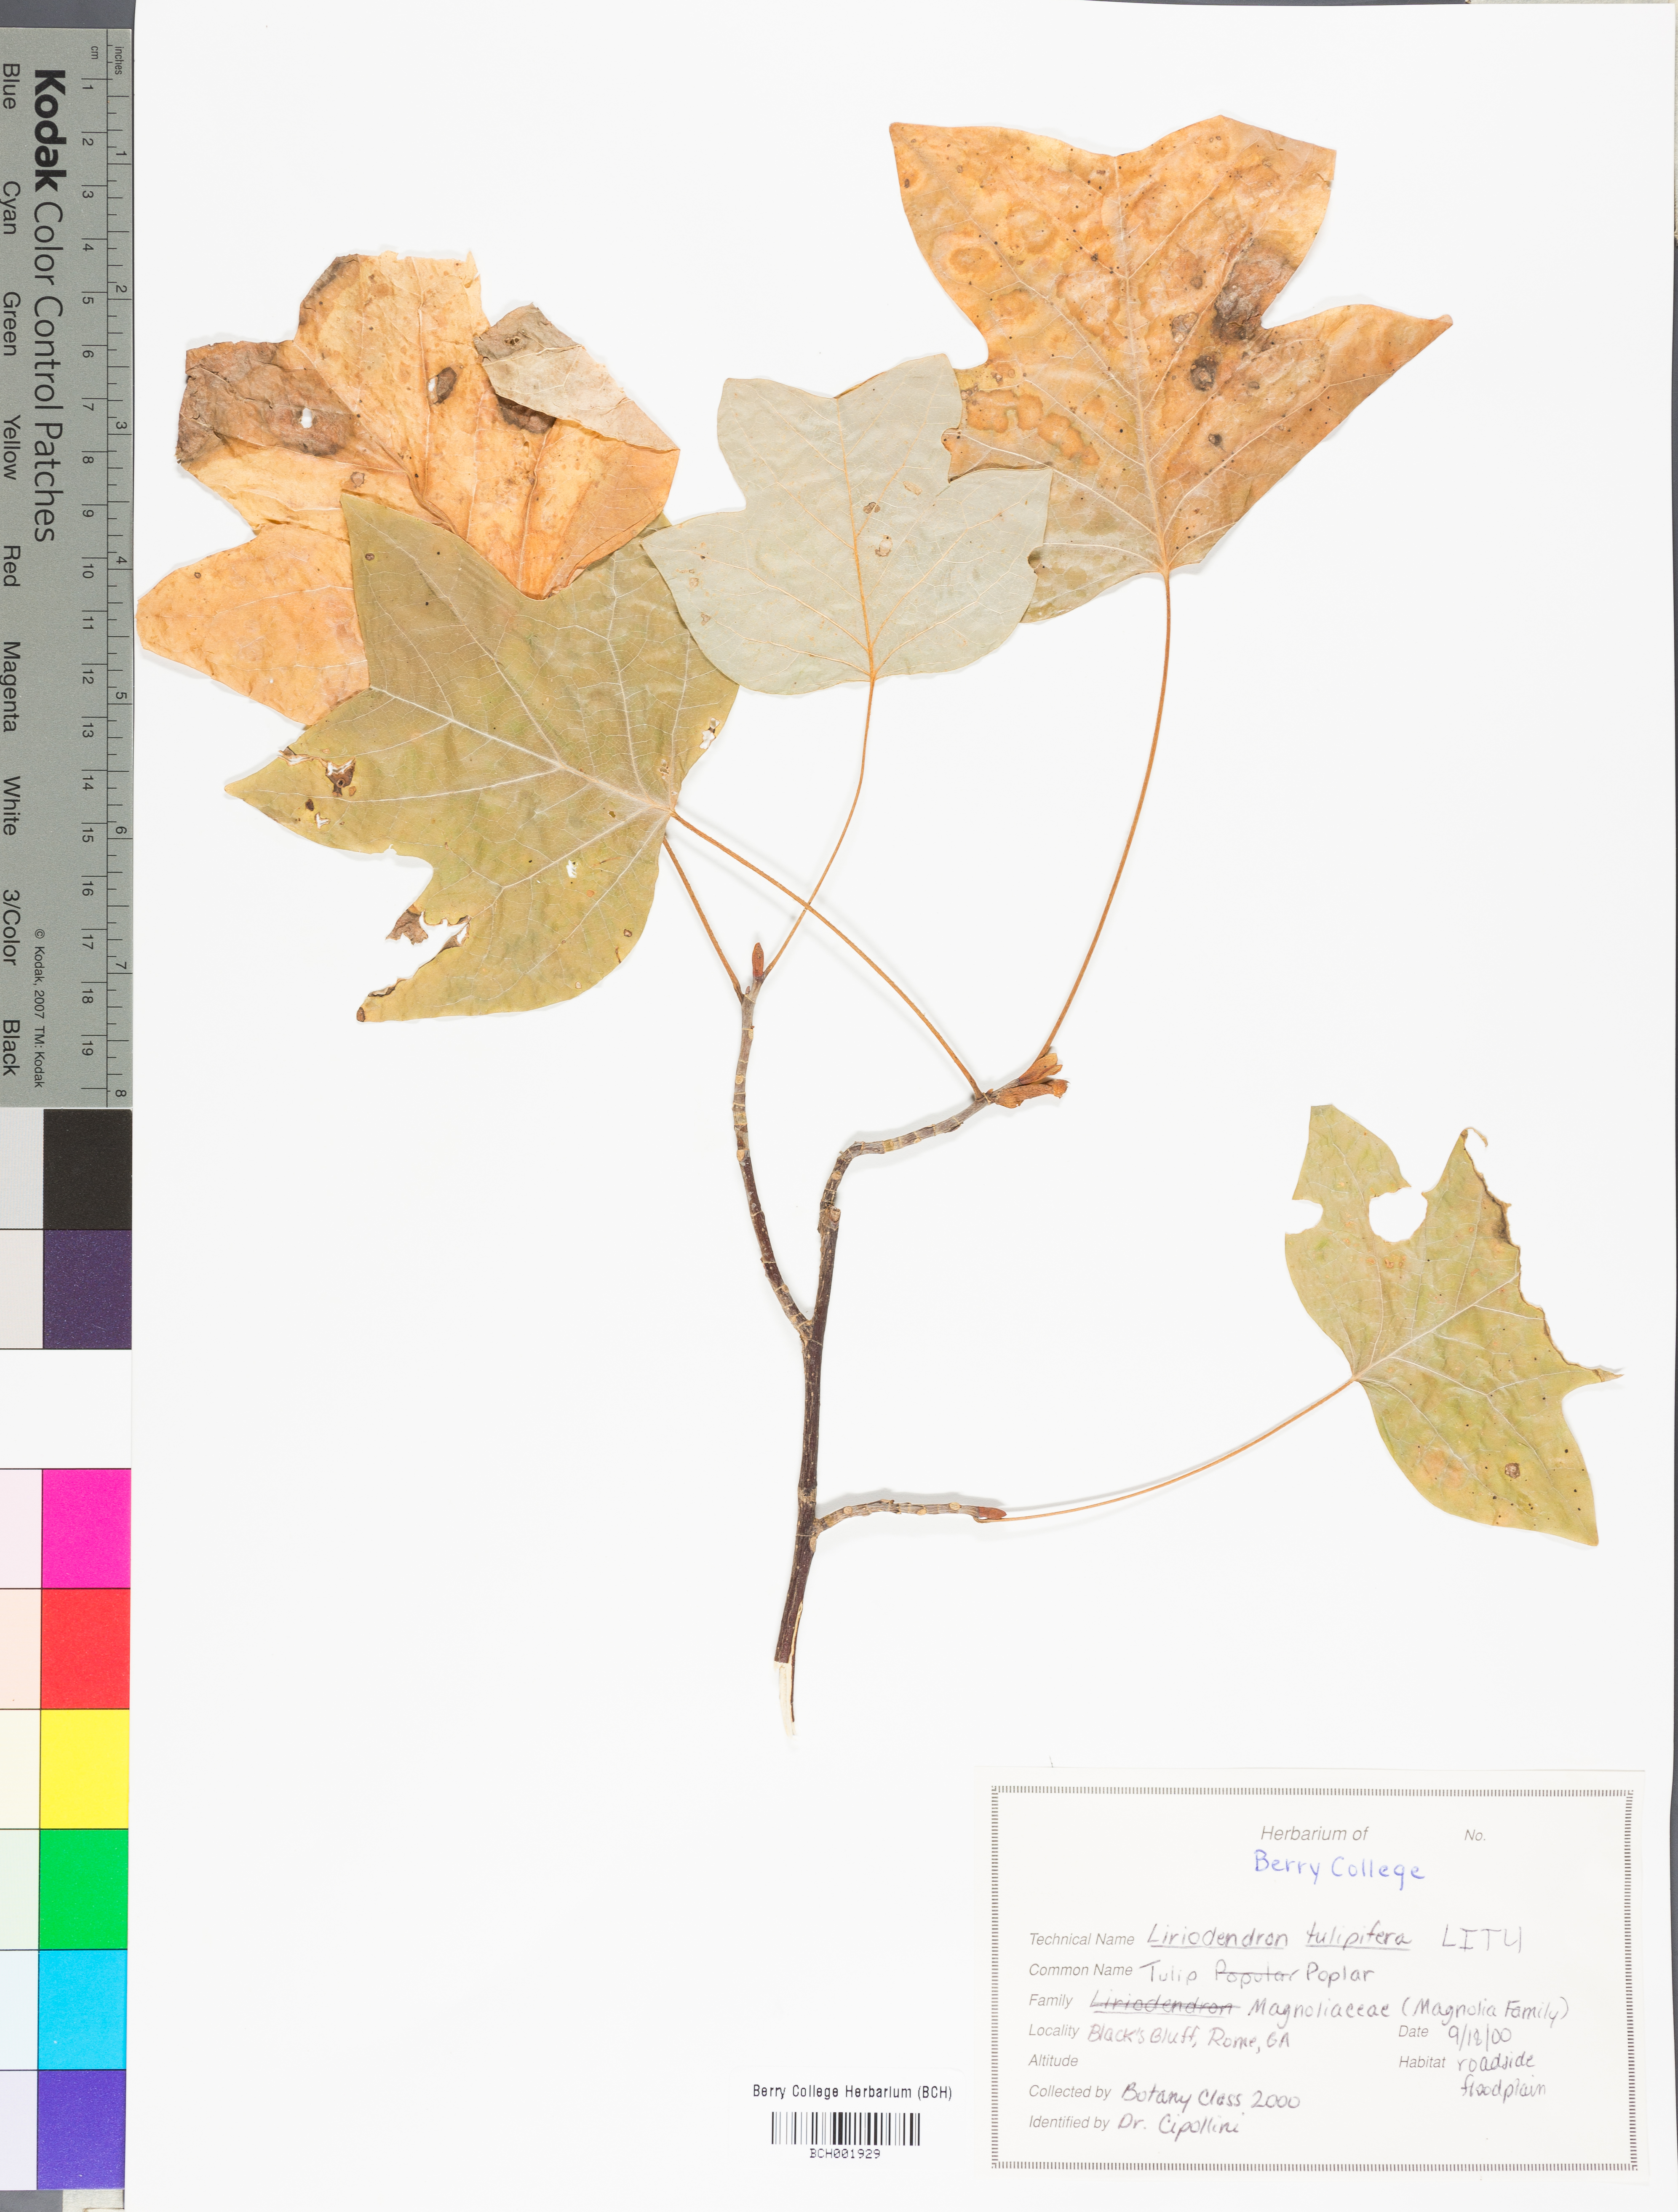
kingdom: Plantae
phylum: Tracheophyta
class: Magnoliopsida
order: Magnoliales
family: Magnoliaceae
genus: Liriodendron
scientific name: Liriodendron tulipifera
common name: Tulip tree
